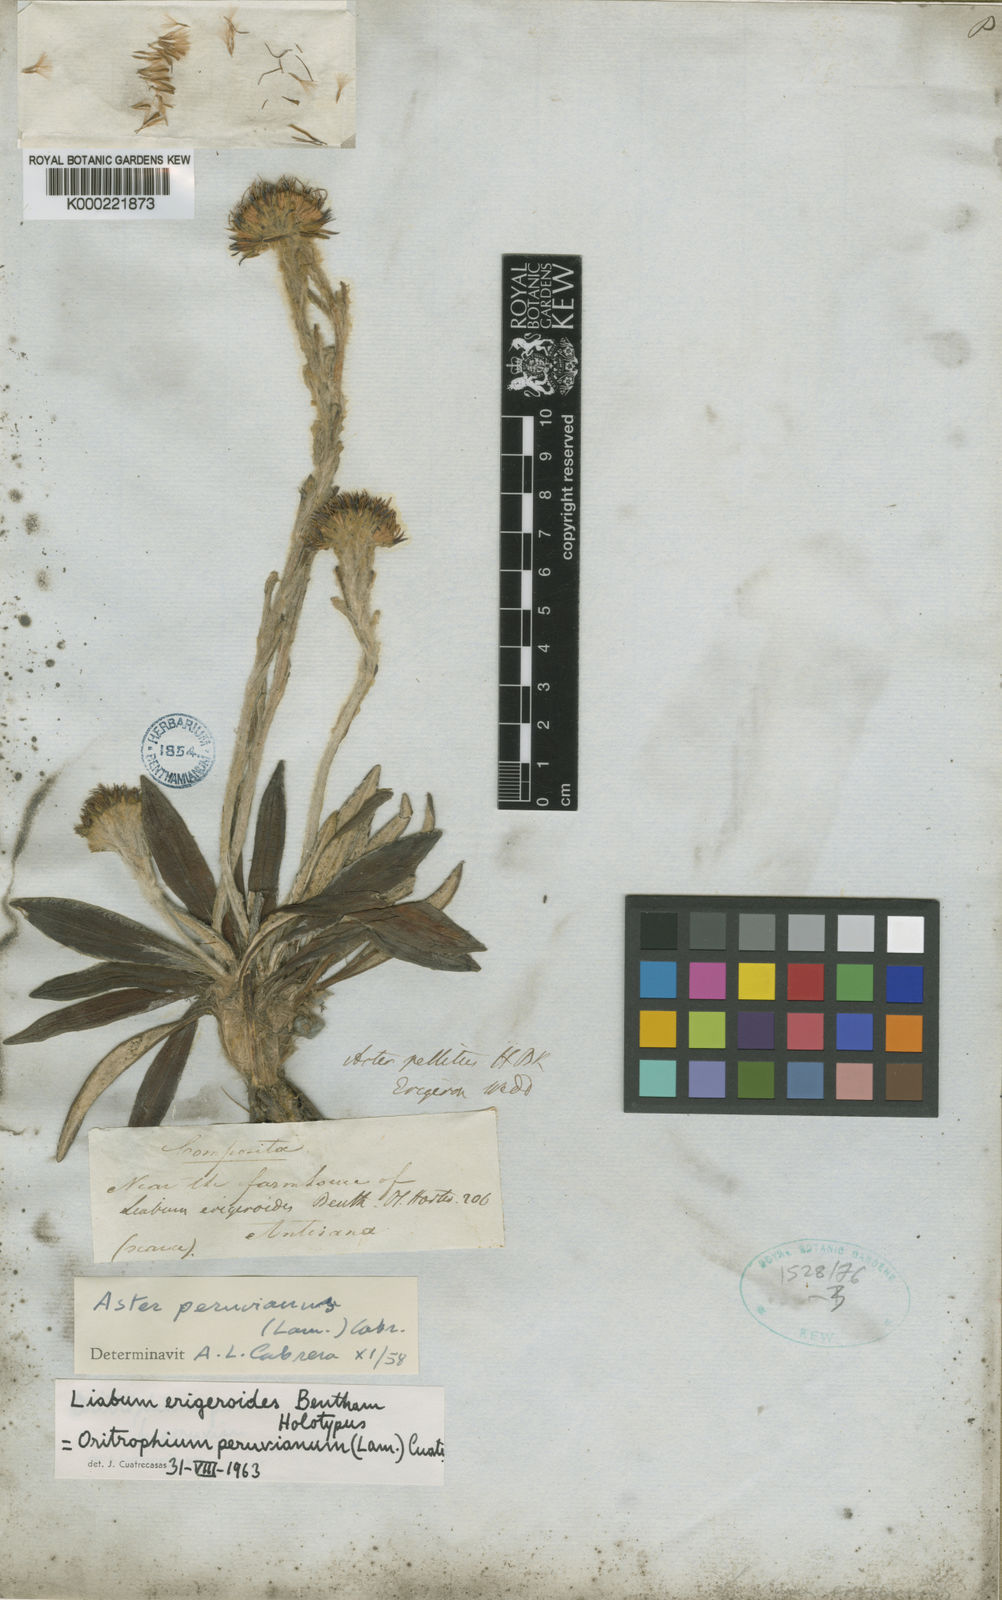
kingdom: Plantae
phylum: Tracheophyta
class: Magnoliopsida
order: Asterales
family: Asteraceae
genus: Oritrophium
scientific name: Oritrophium peruvianum
